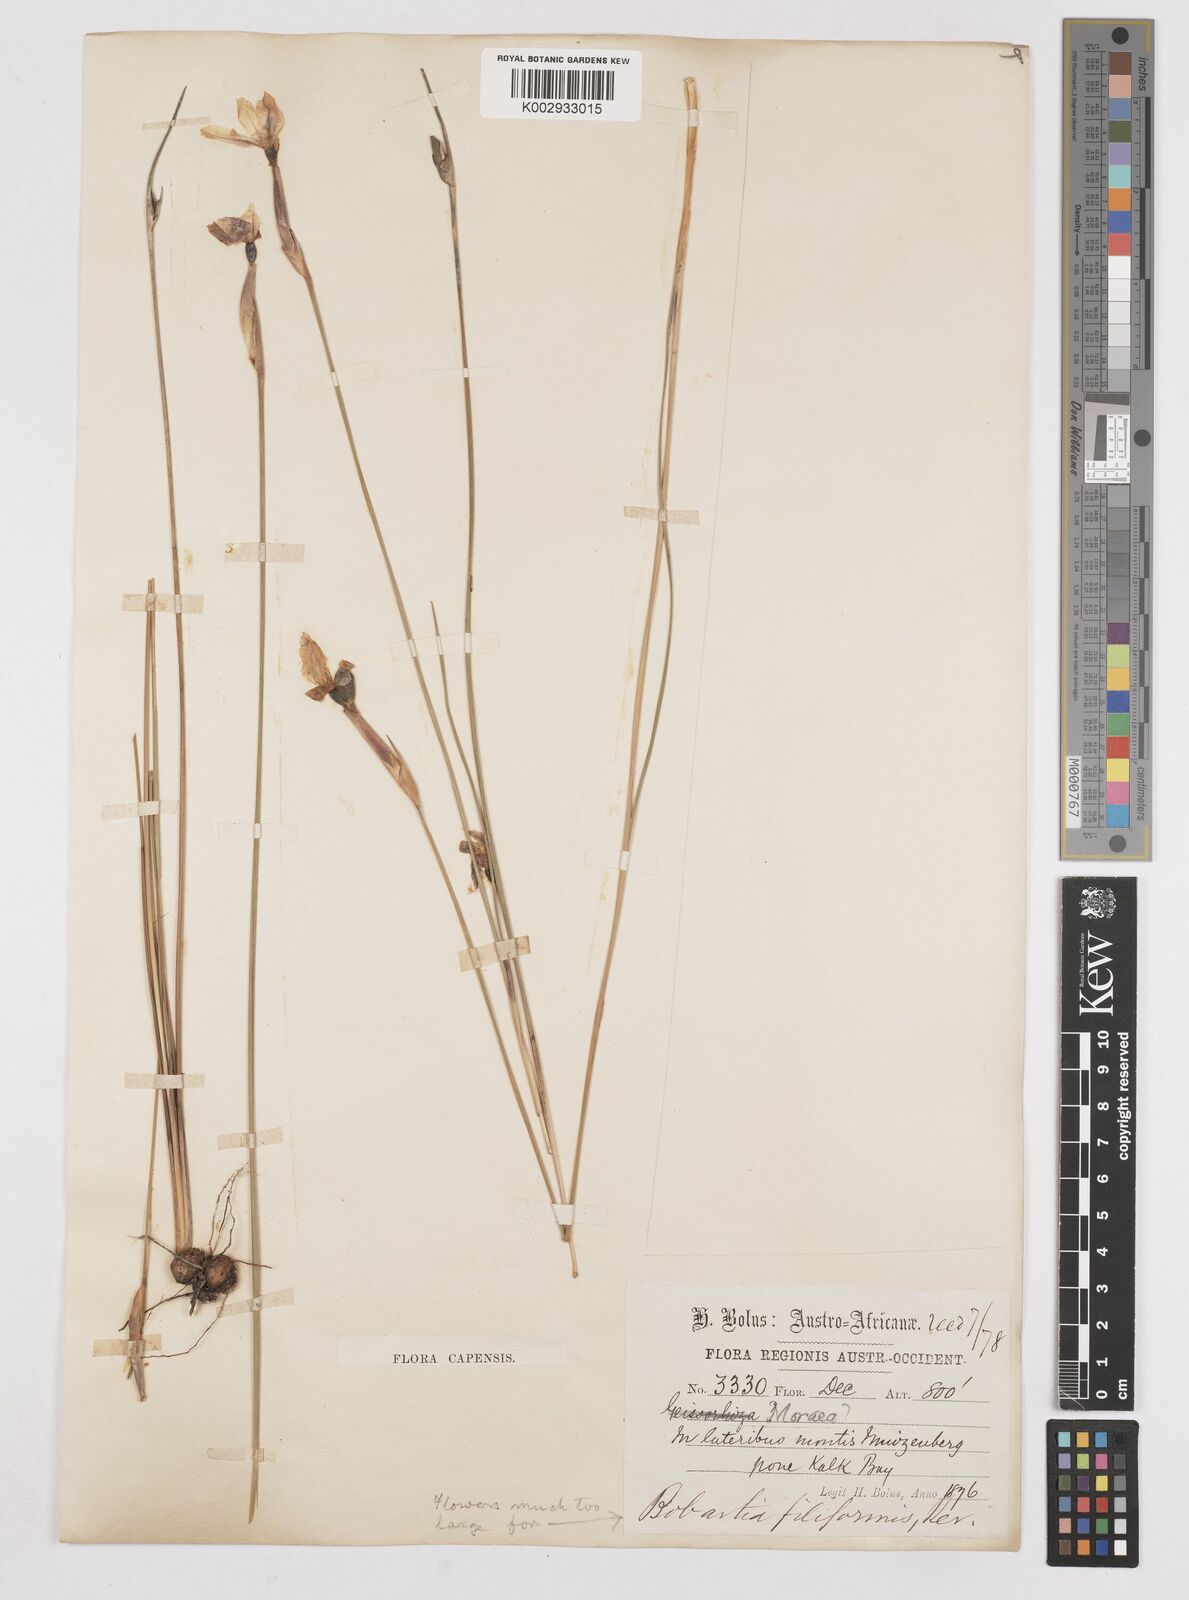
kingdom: Plantae
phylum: Tracheophyta
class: Liliopsida
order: Asparagales
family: Iridaceae
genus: Bobartia
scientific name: Bobartia filiformis
